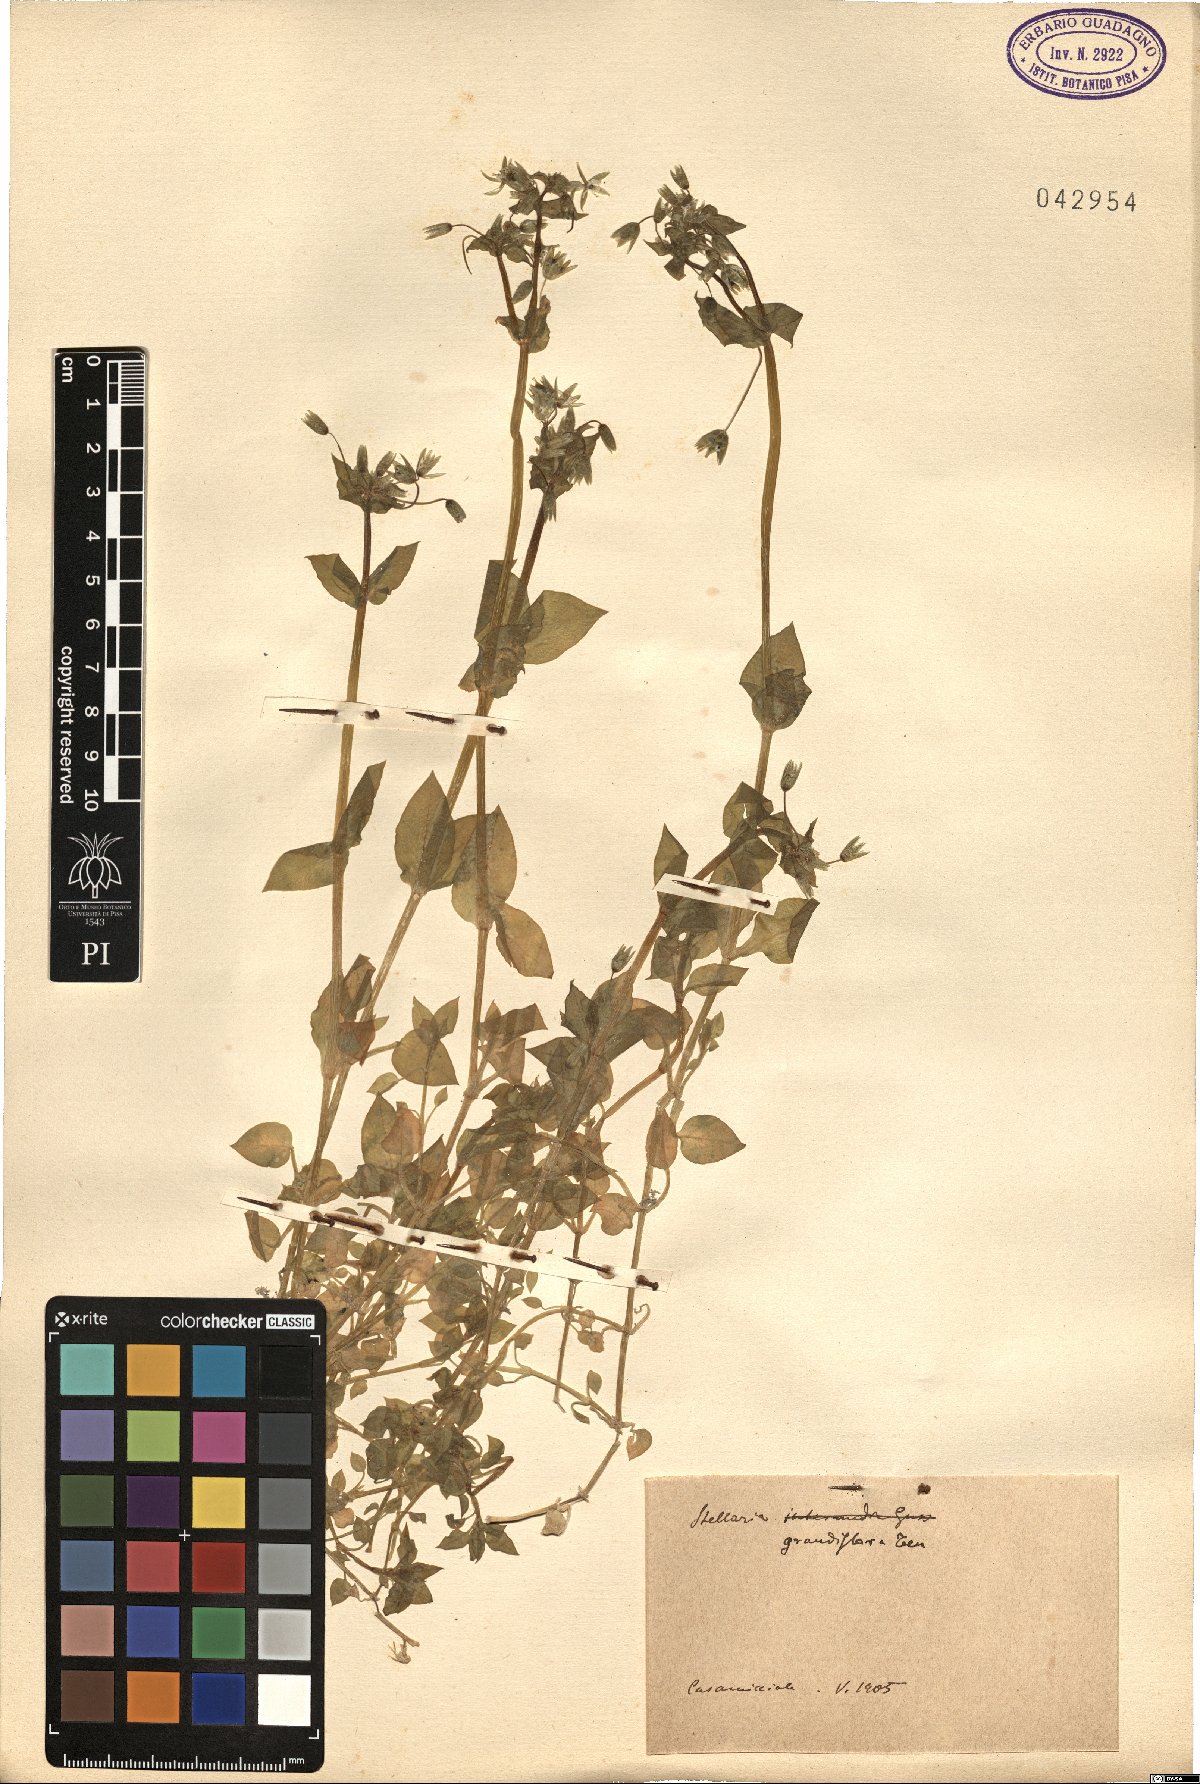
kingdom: Plantae
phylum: Tracheophyta
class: Magnoliopsida
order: Caryophyllales
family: Caryophyllaceae
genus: Stellaria
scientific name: Stellaria
